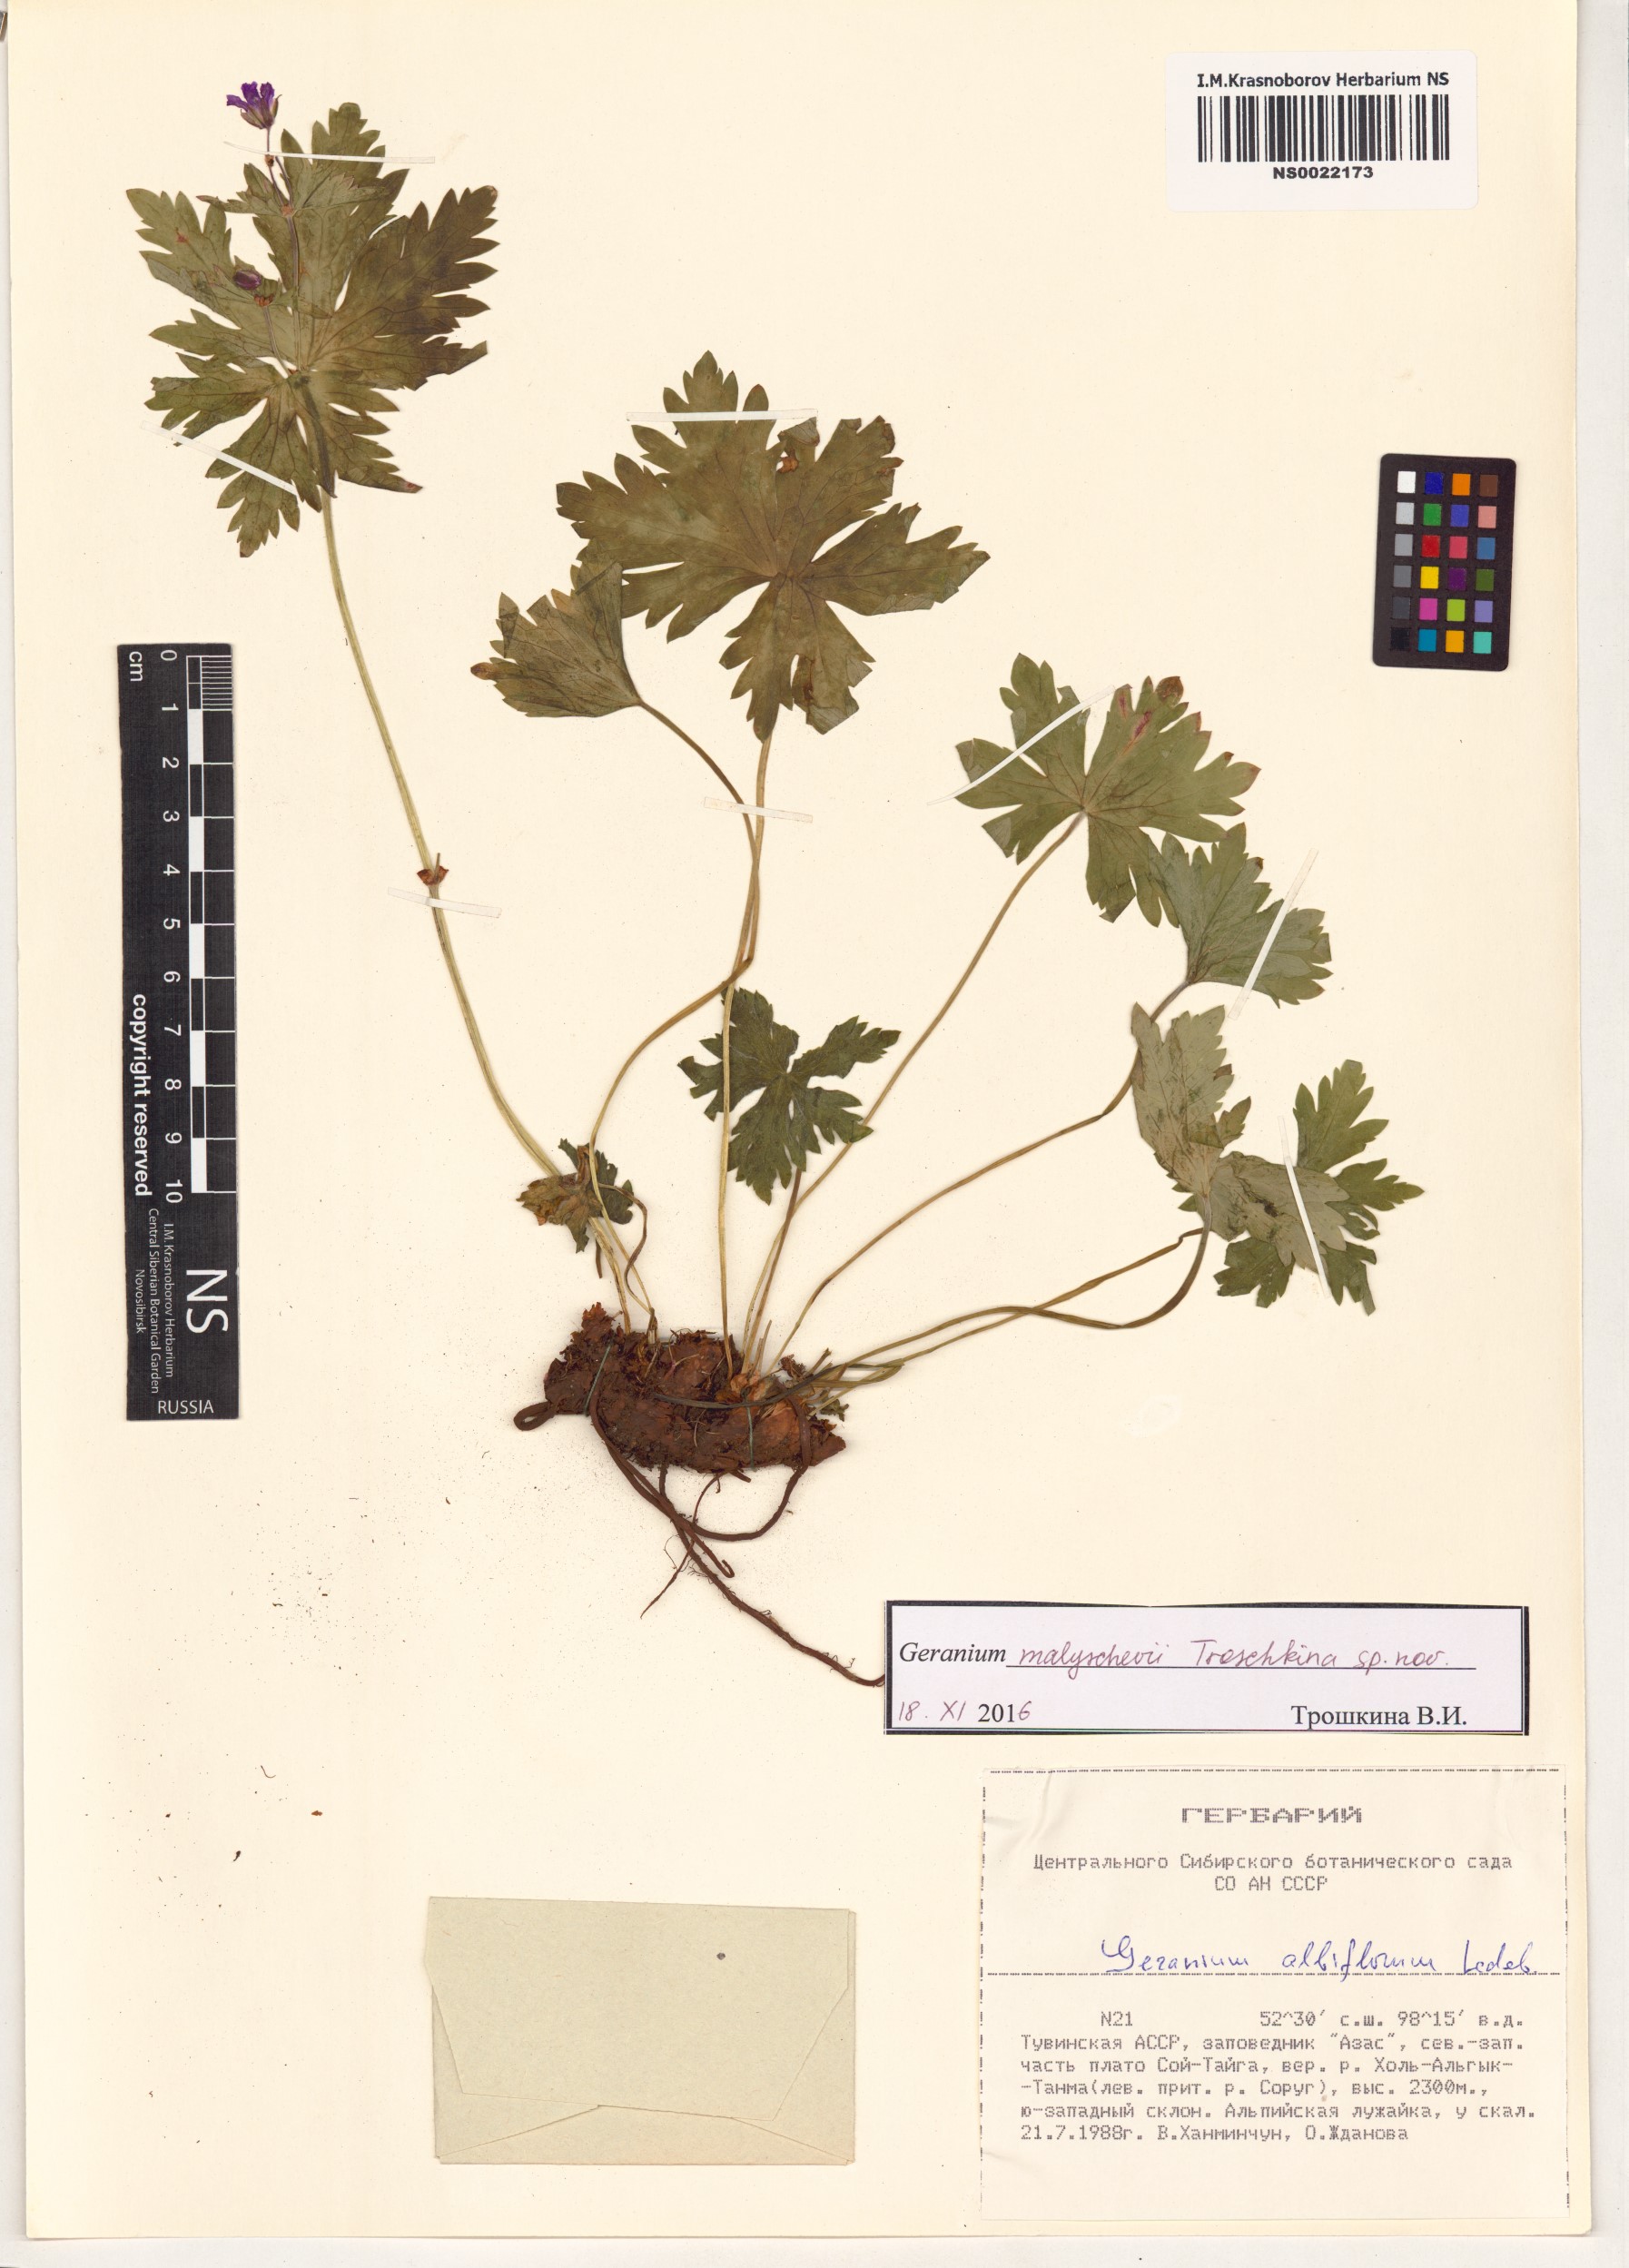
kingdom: Plantae
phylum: Tracheophyta
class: Magnoliopsida
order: Geraniales
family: Geraniaceae
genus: Geranium
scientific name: Geranium malyschevii
